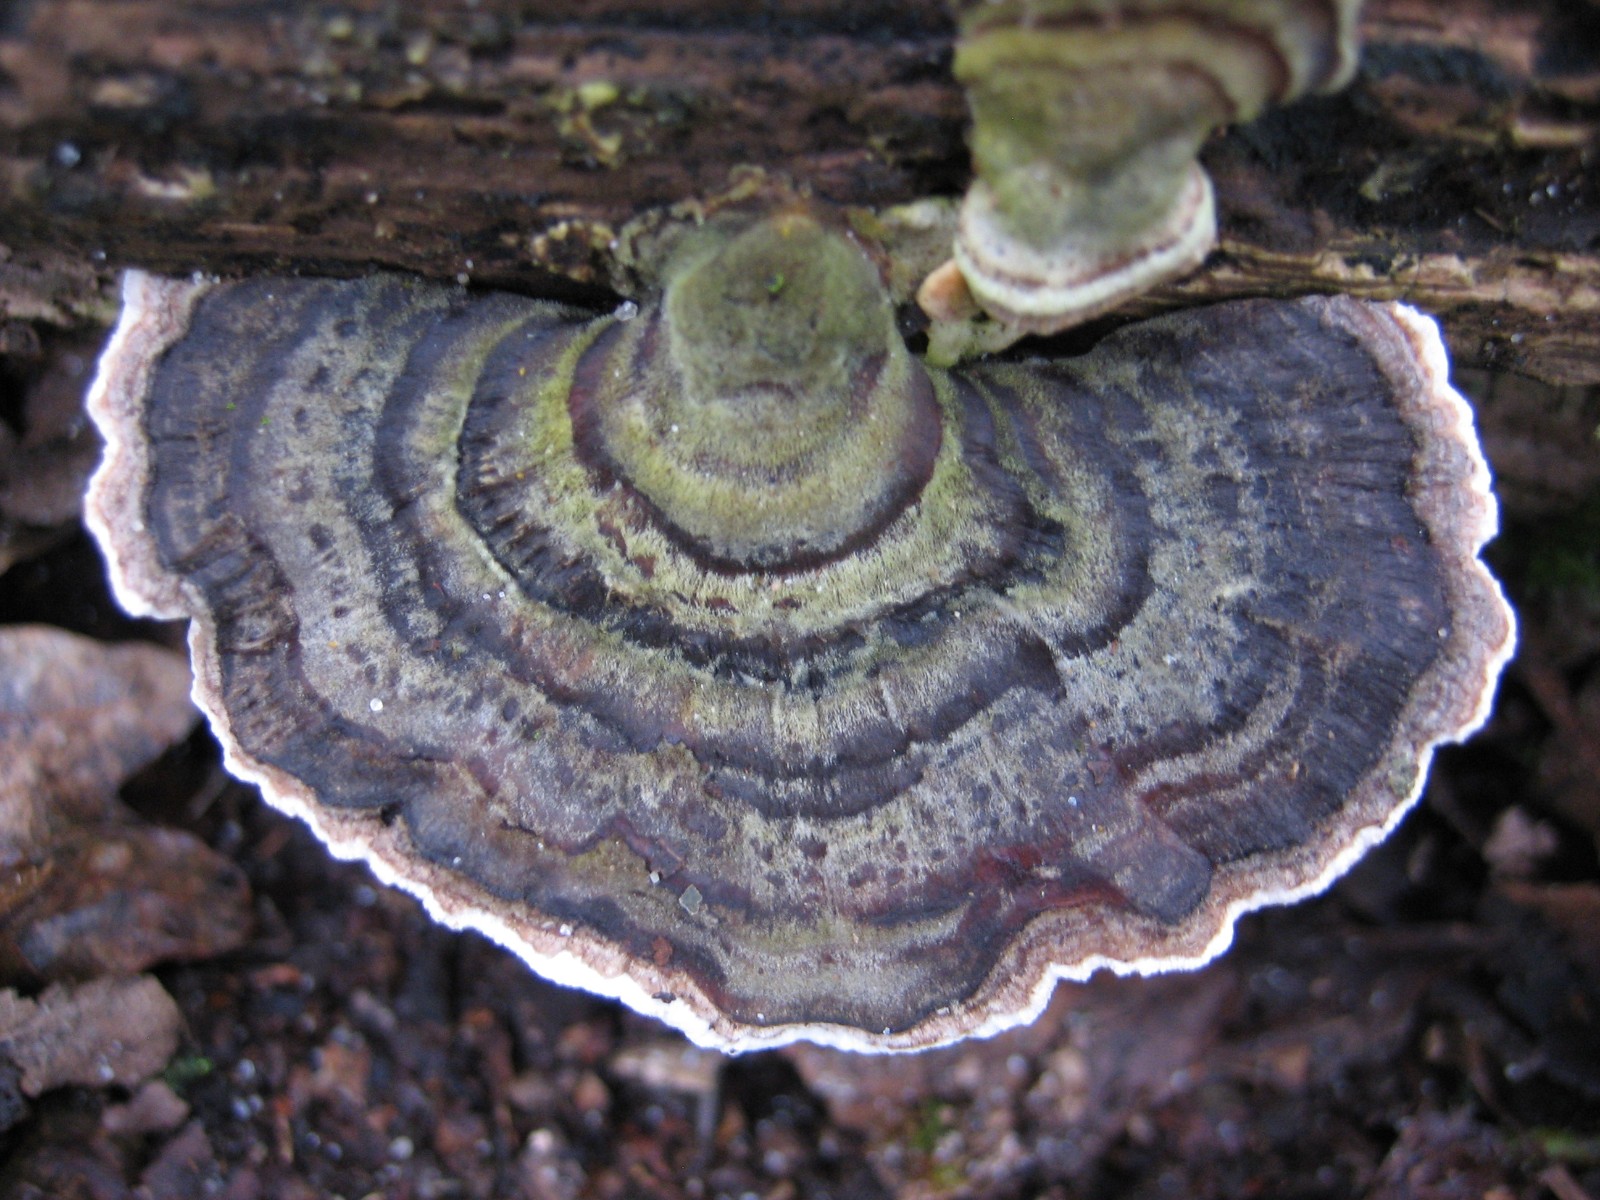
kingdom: Fungi
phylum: Basidiomycota
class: Agaricomycetes
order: Polyporales
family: Polyporaceae
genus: Trametes
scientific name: Trametes versicolor
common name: broget læderporesvamp
